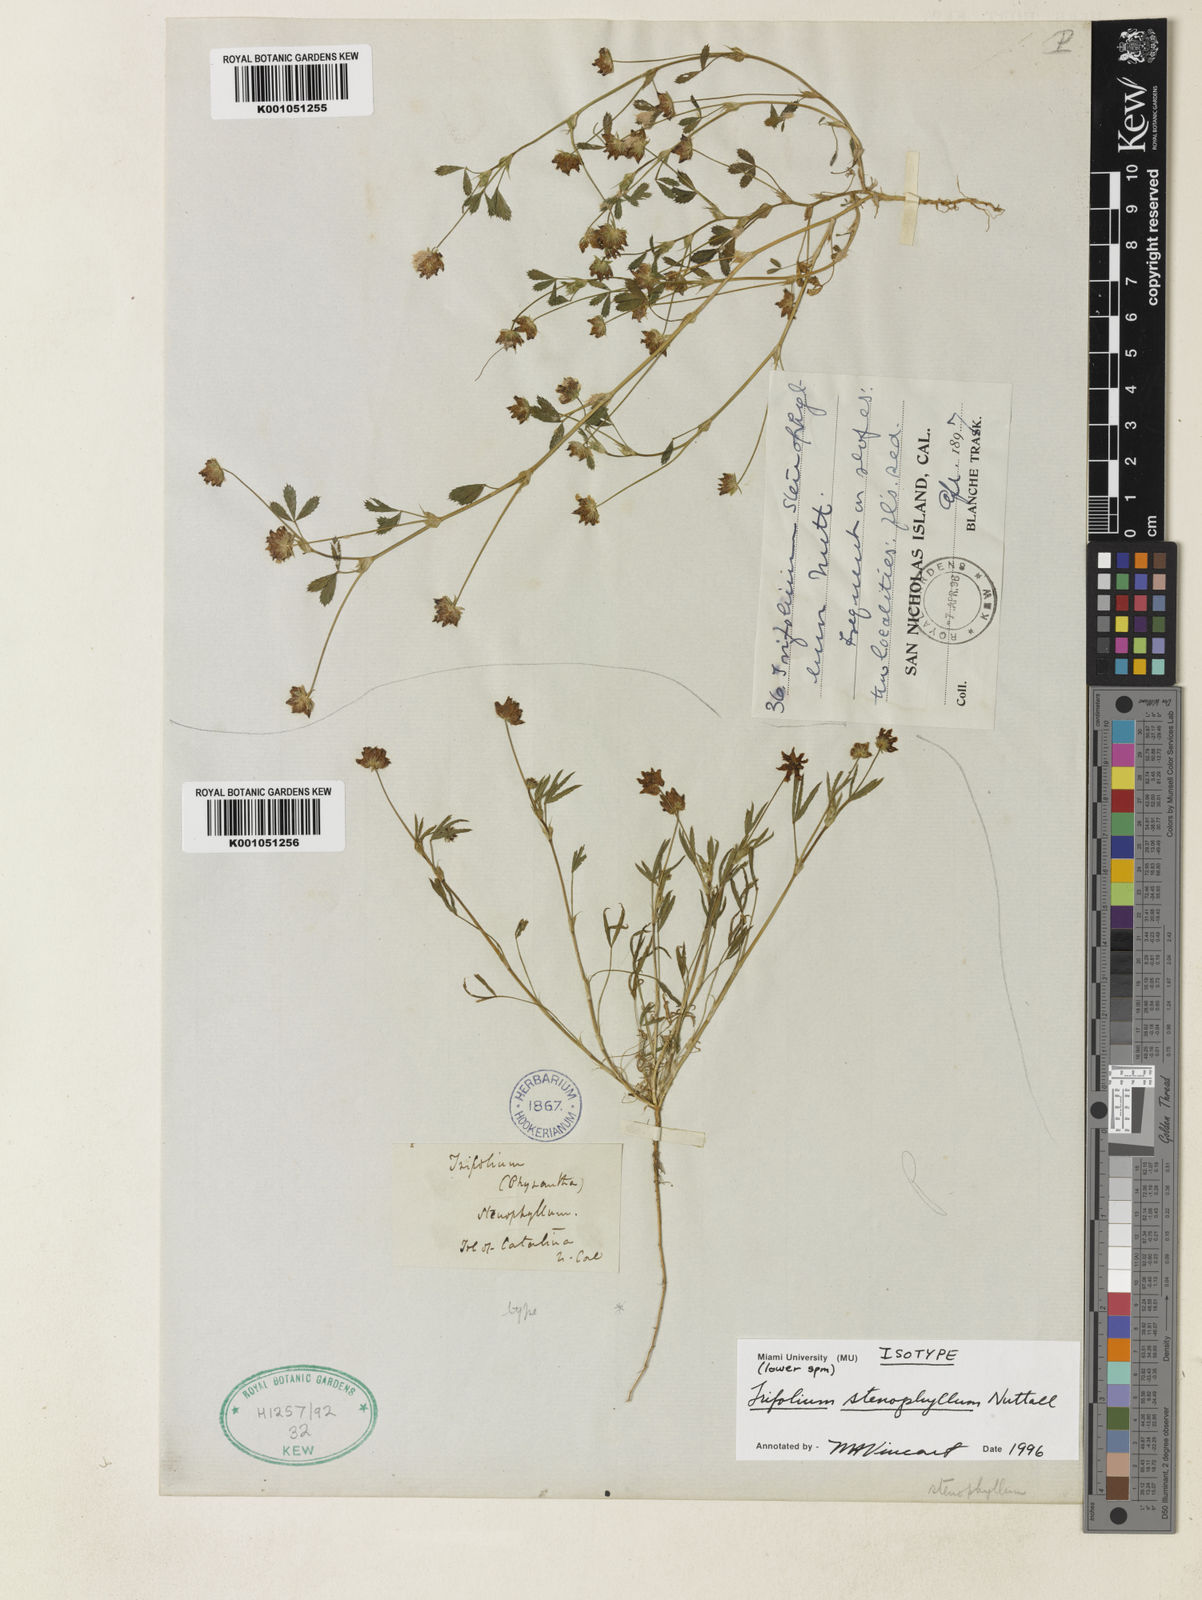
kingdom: Plantae
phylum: Tracheophyta
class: Magnoliopsida
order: Fabales
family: Fabaceae
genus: Trifolium
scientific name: Trifolium depauperatum
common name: Poverty clover
